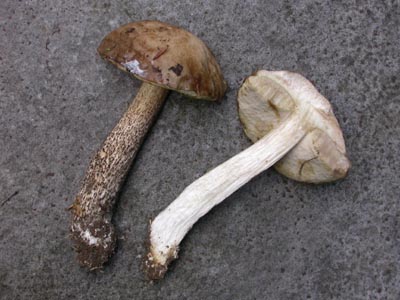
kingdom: Fungi
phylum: Basidiomycota
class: Agaricomycetes
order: Boletales
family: Boletaceae
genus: Leccinum
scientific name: Leccinum scabrum
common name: brun skælrørhat
